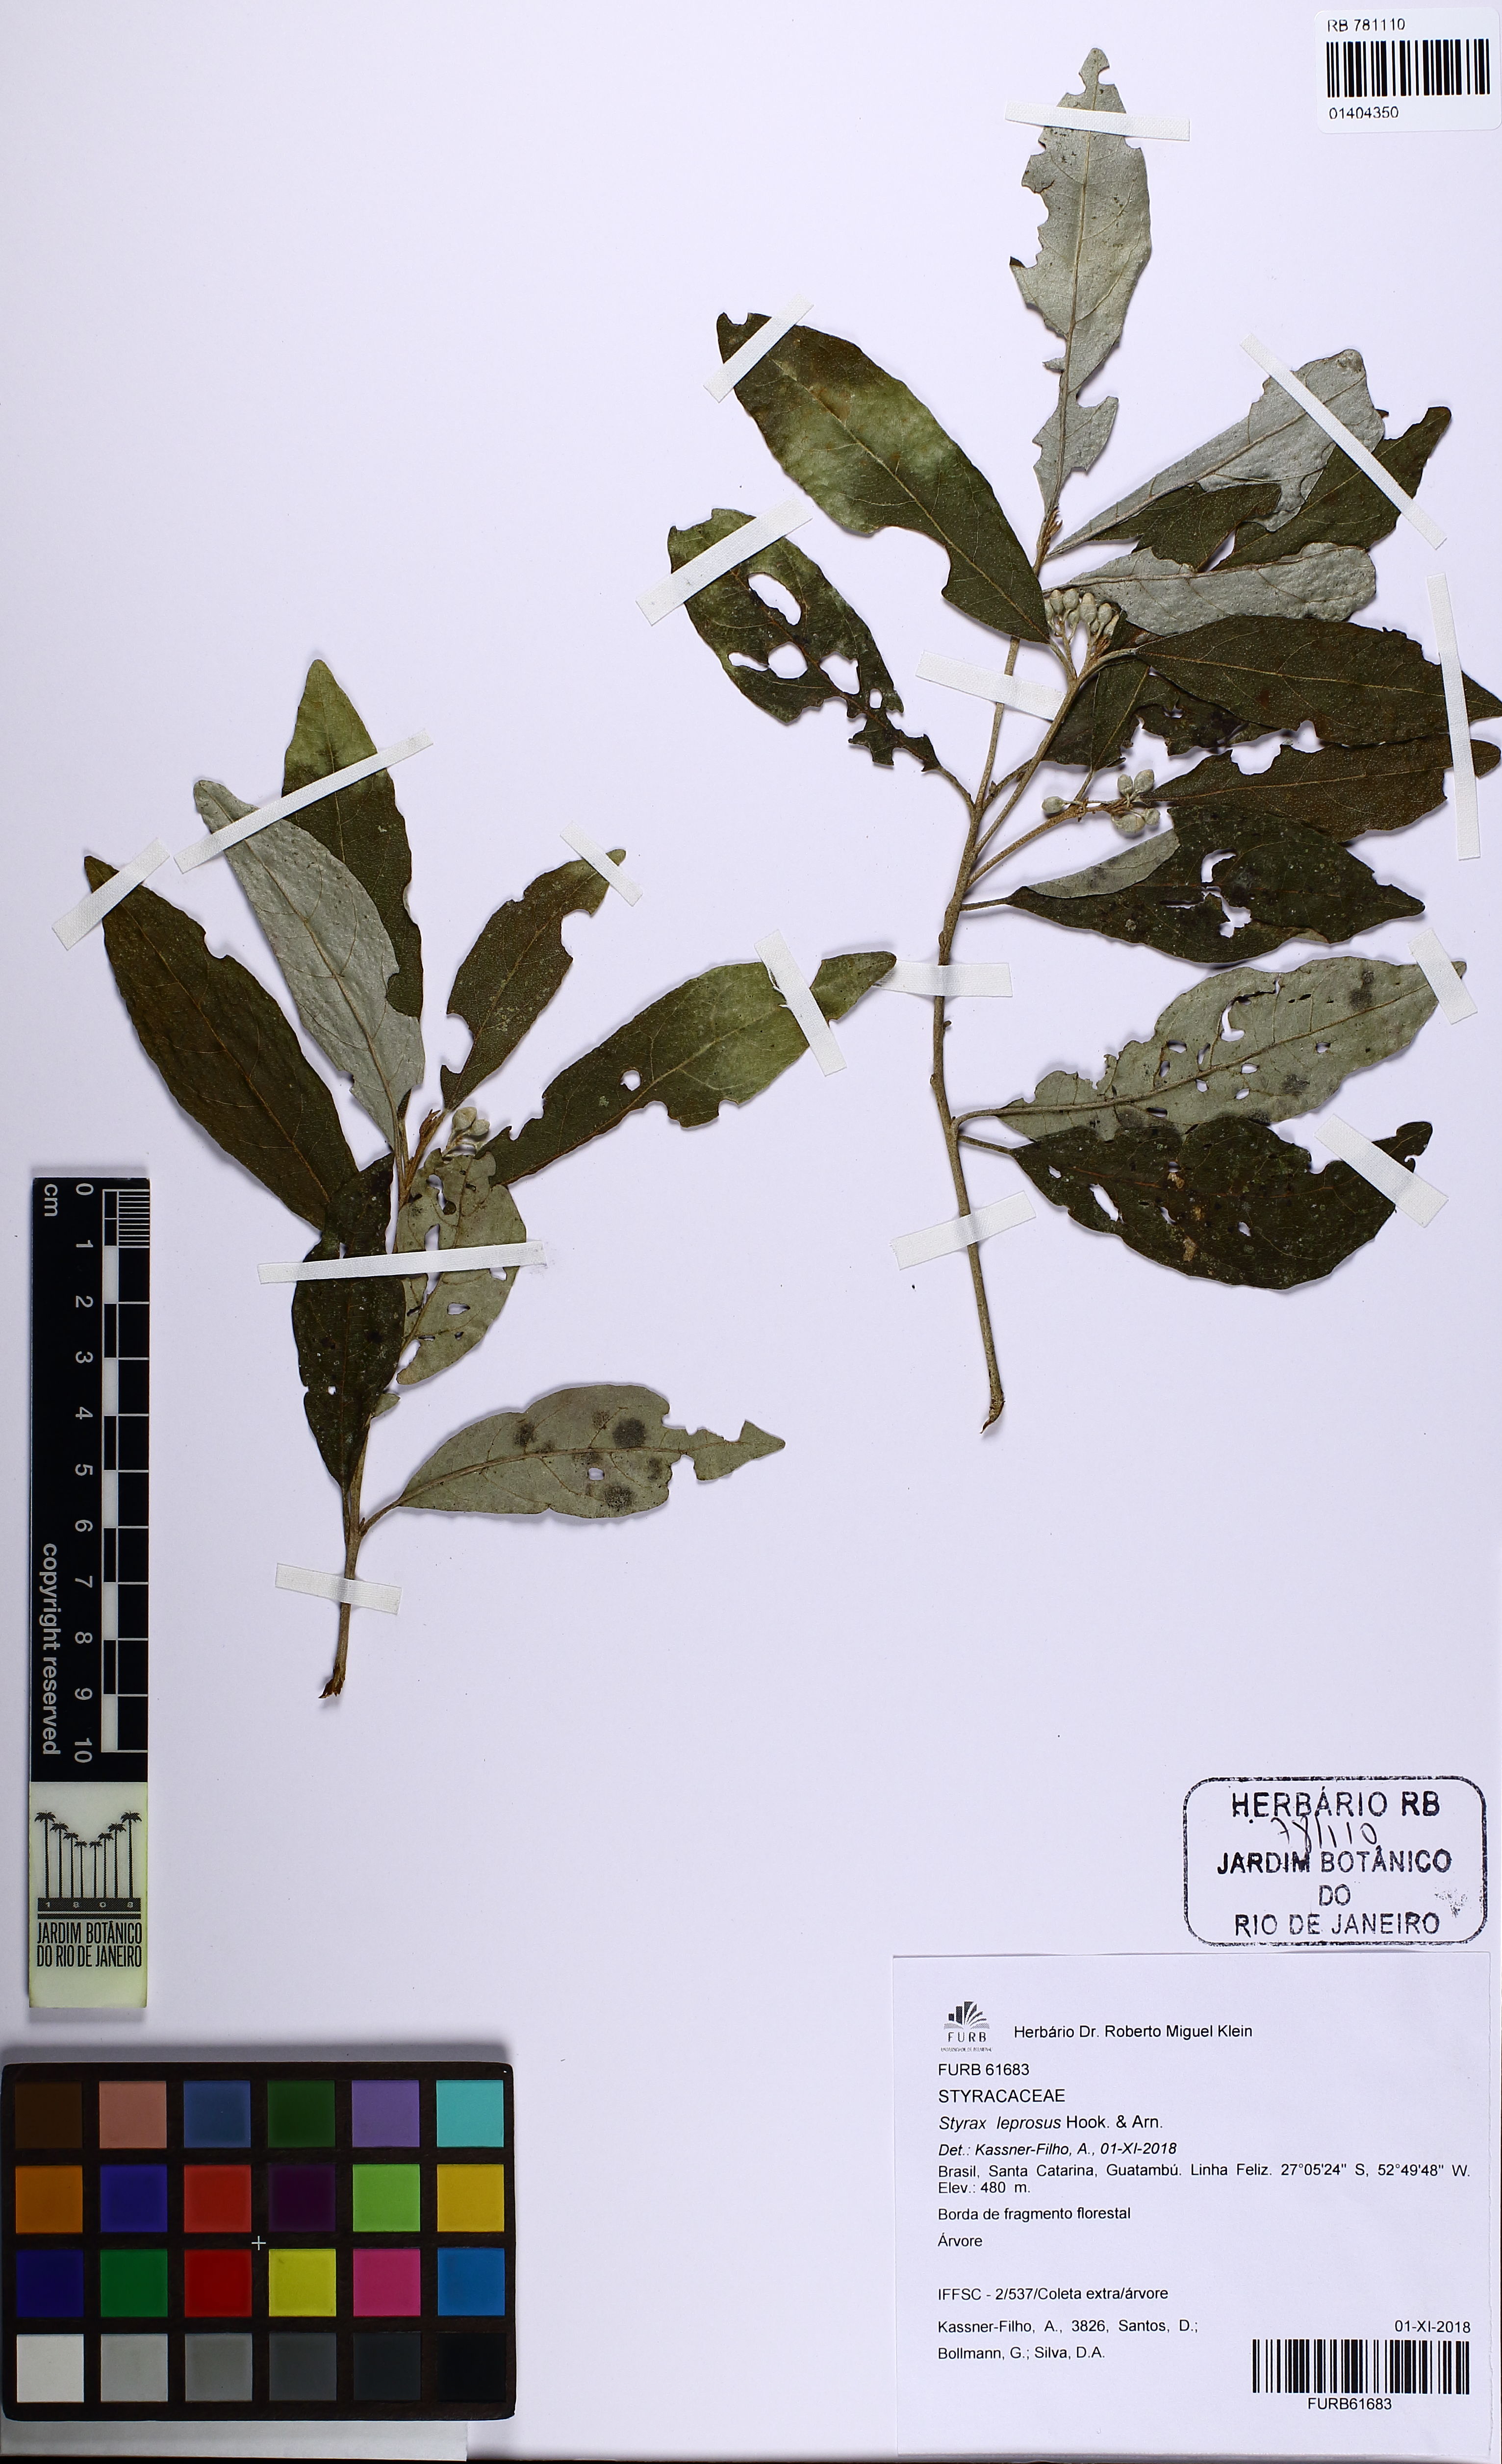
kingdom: Plantae
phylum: Tracheophyta
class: Magnoliopsida
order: Ericales
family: Styracaceae
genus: Styrax
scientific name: Styrax leprosus
